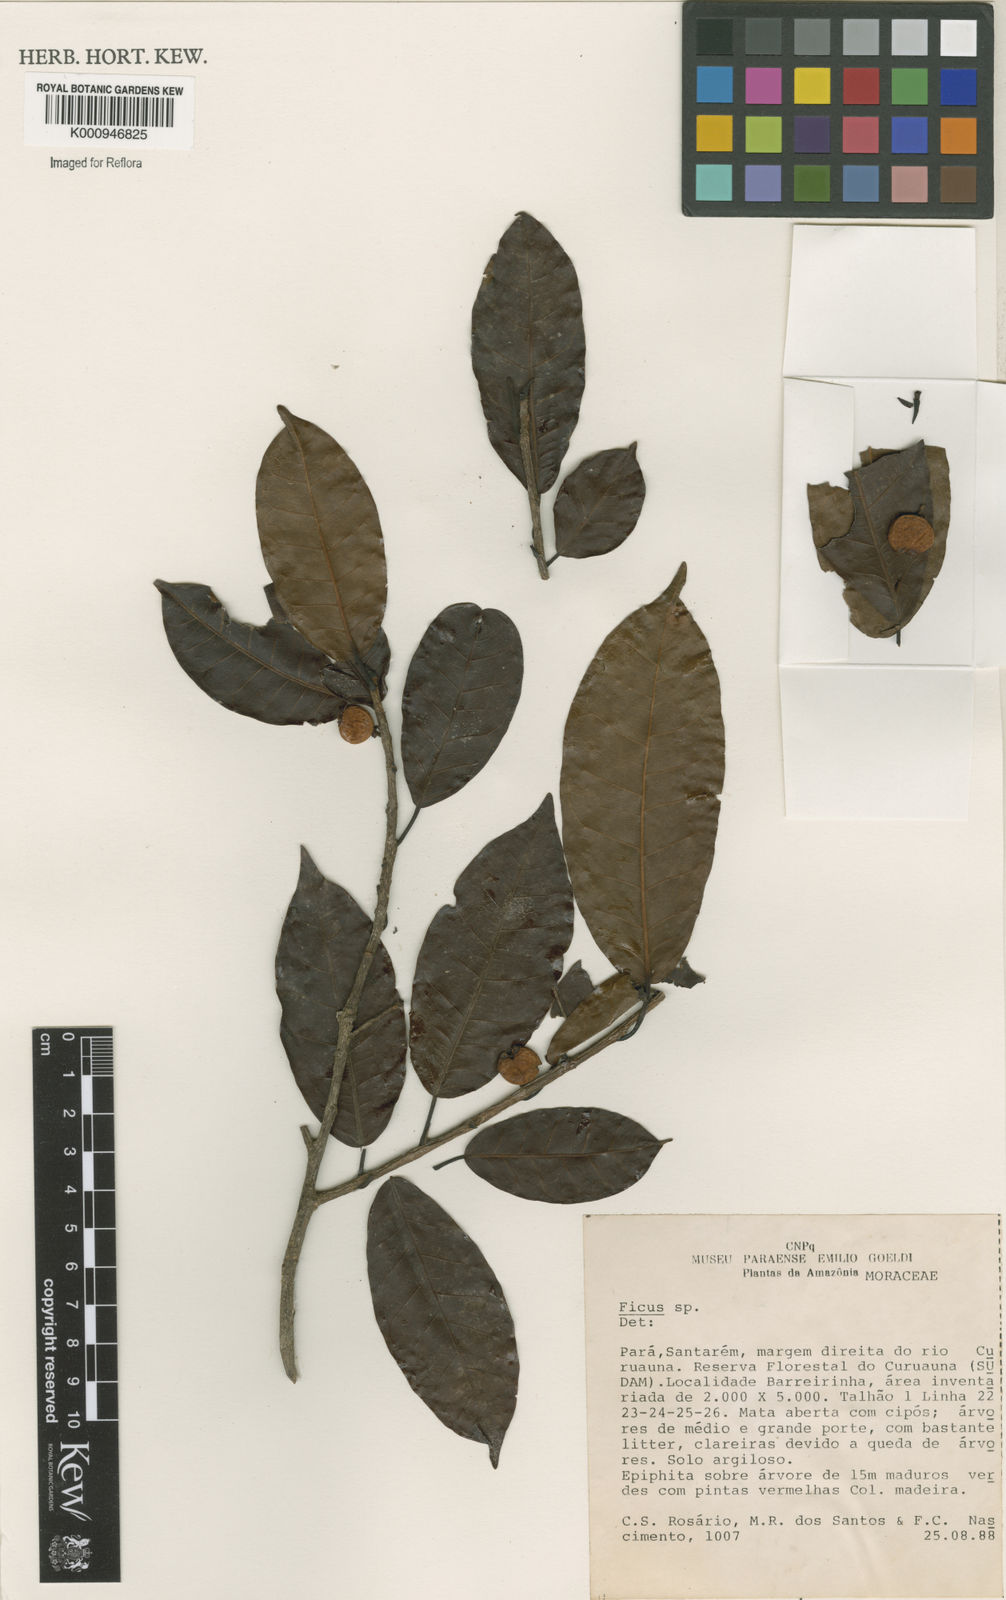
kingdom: Plantae
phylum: Tracheophyta
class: Magnoliopsida
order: Rosales
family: Moraceae
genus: Ficus
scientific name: Ficus
